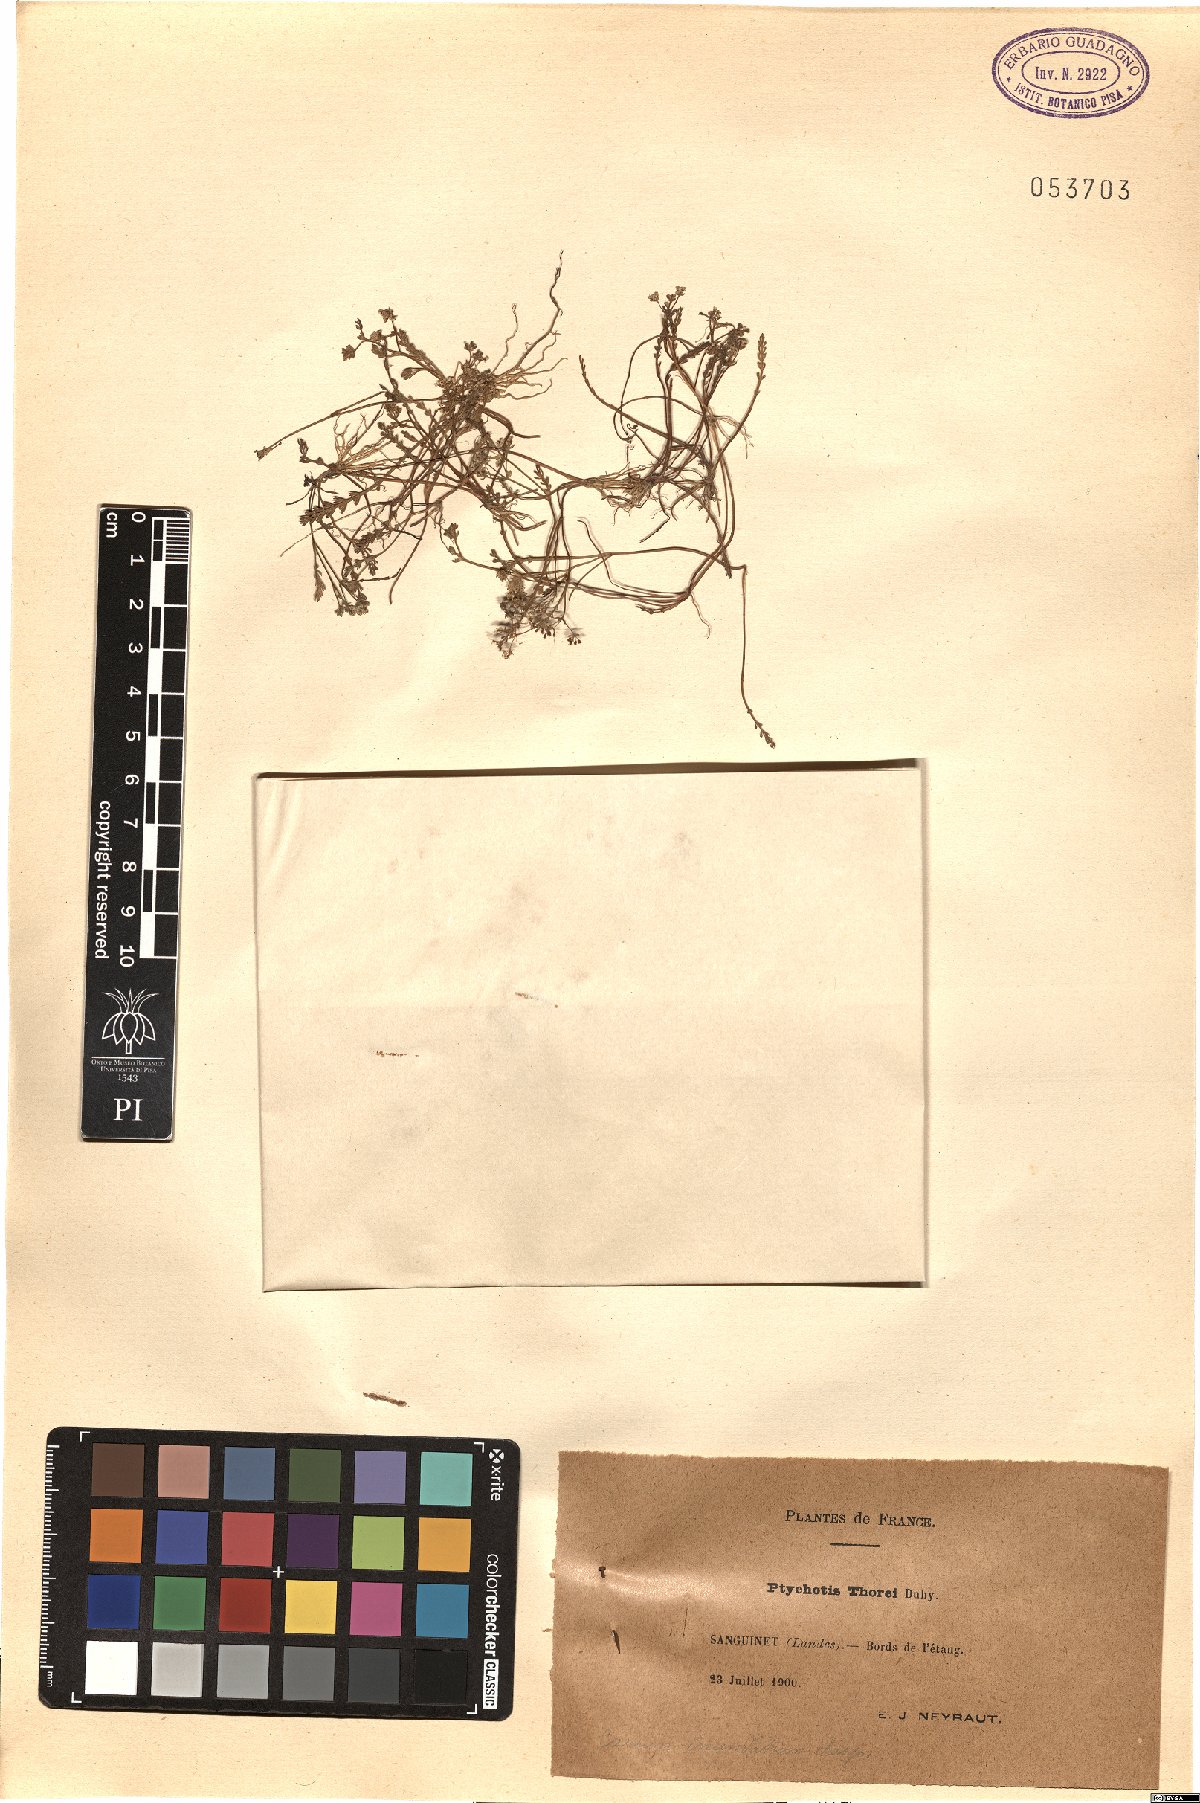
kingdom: Plantae
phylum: Tracheophyta
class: Magnoliopsida
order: Apiales
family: Apiaceae
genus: Caropsis
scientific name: Caropsis verticillatoinundata
